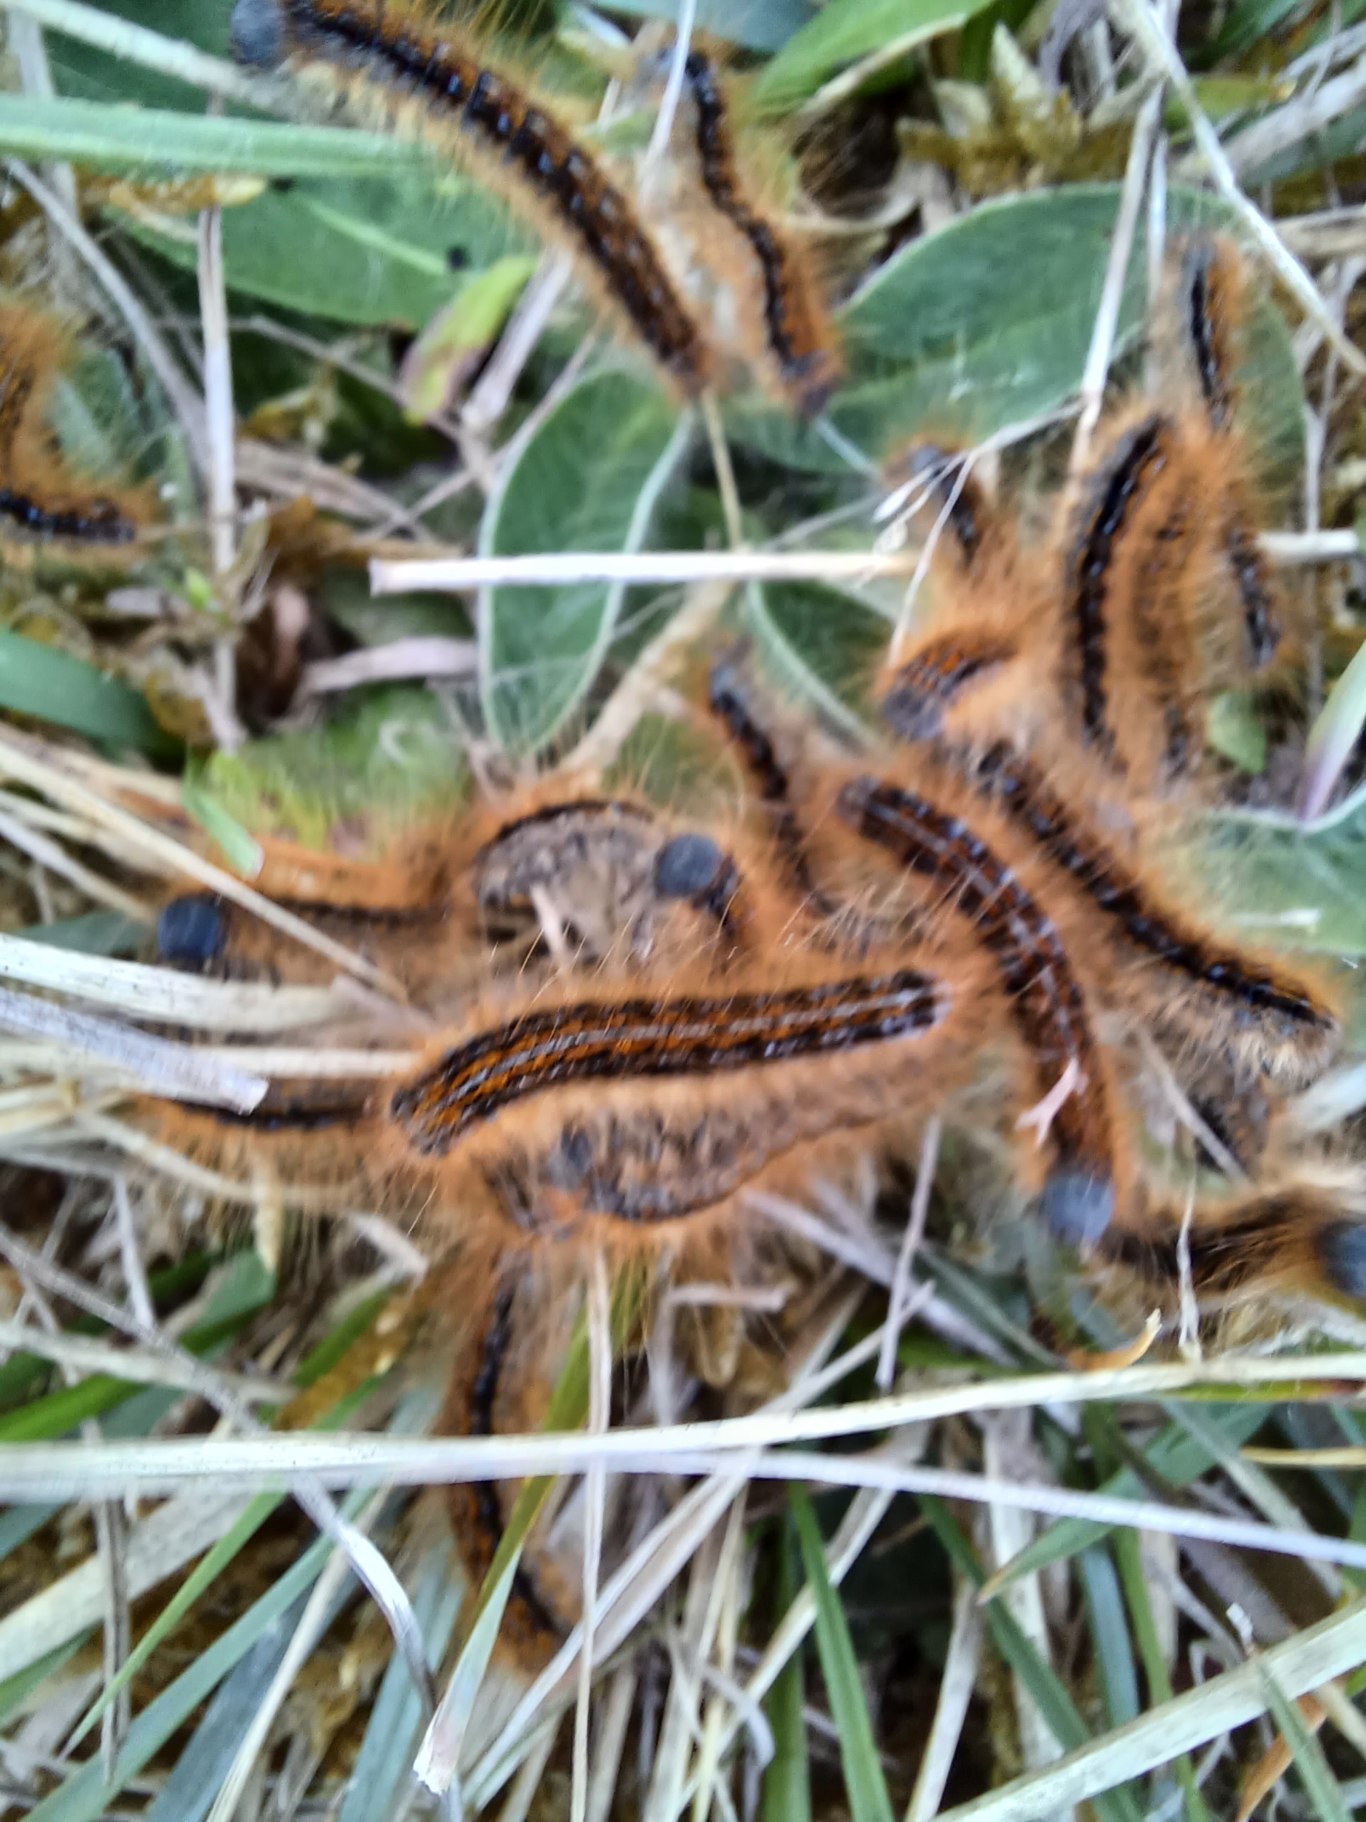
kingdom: Animalia
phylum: Arthropoda
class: Insecta
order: Lepidoptera
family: Lasiocampidae
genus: Malacosoma
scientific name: Malacosoma castrensis
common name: Redespinder
